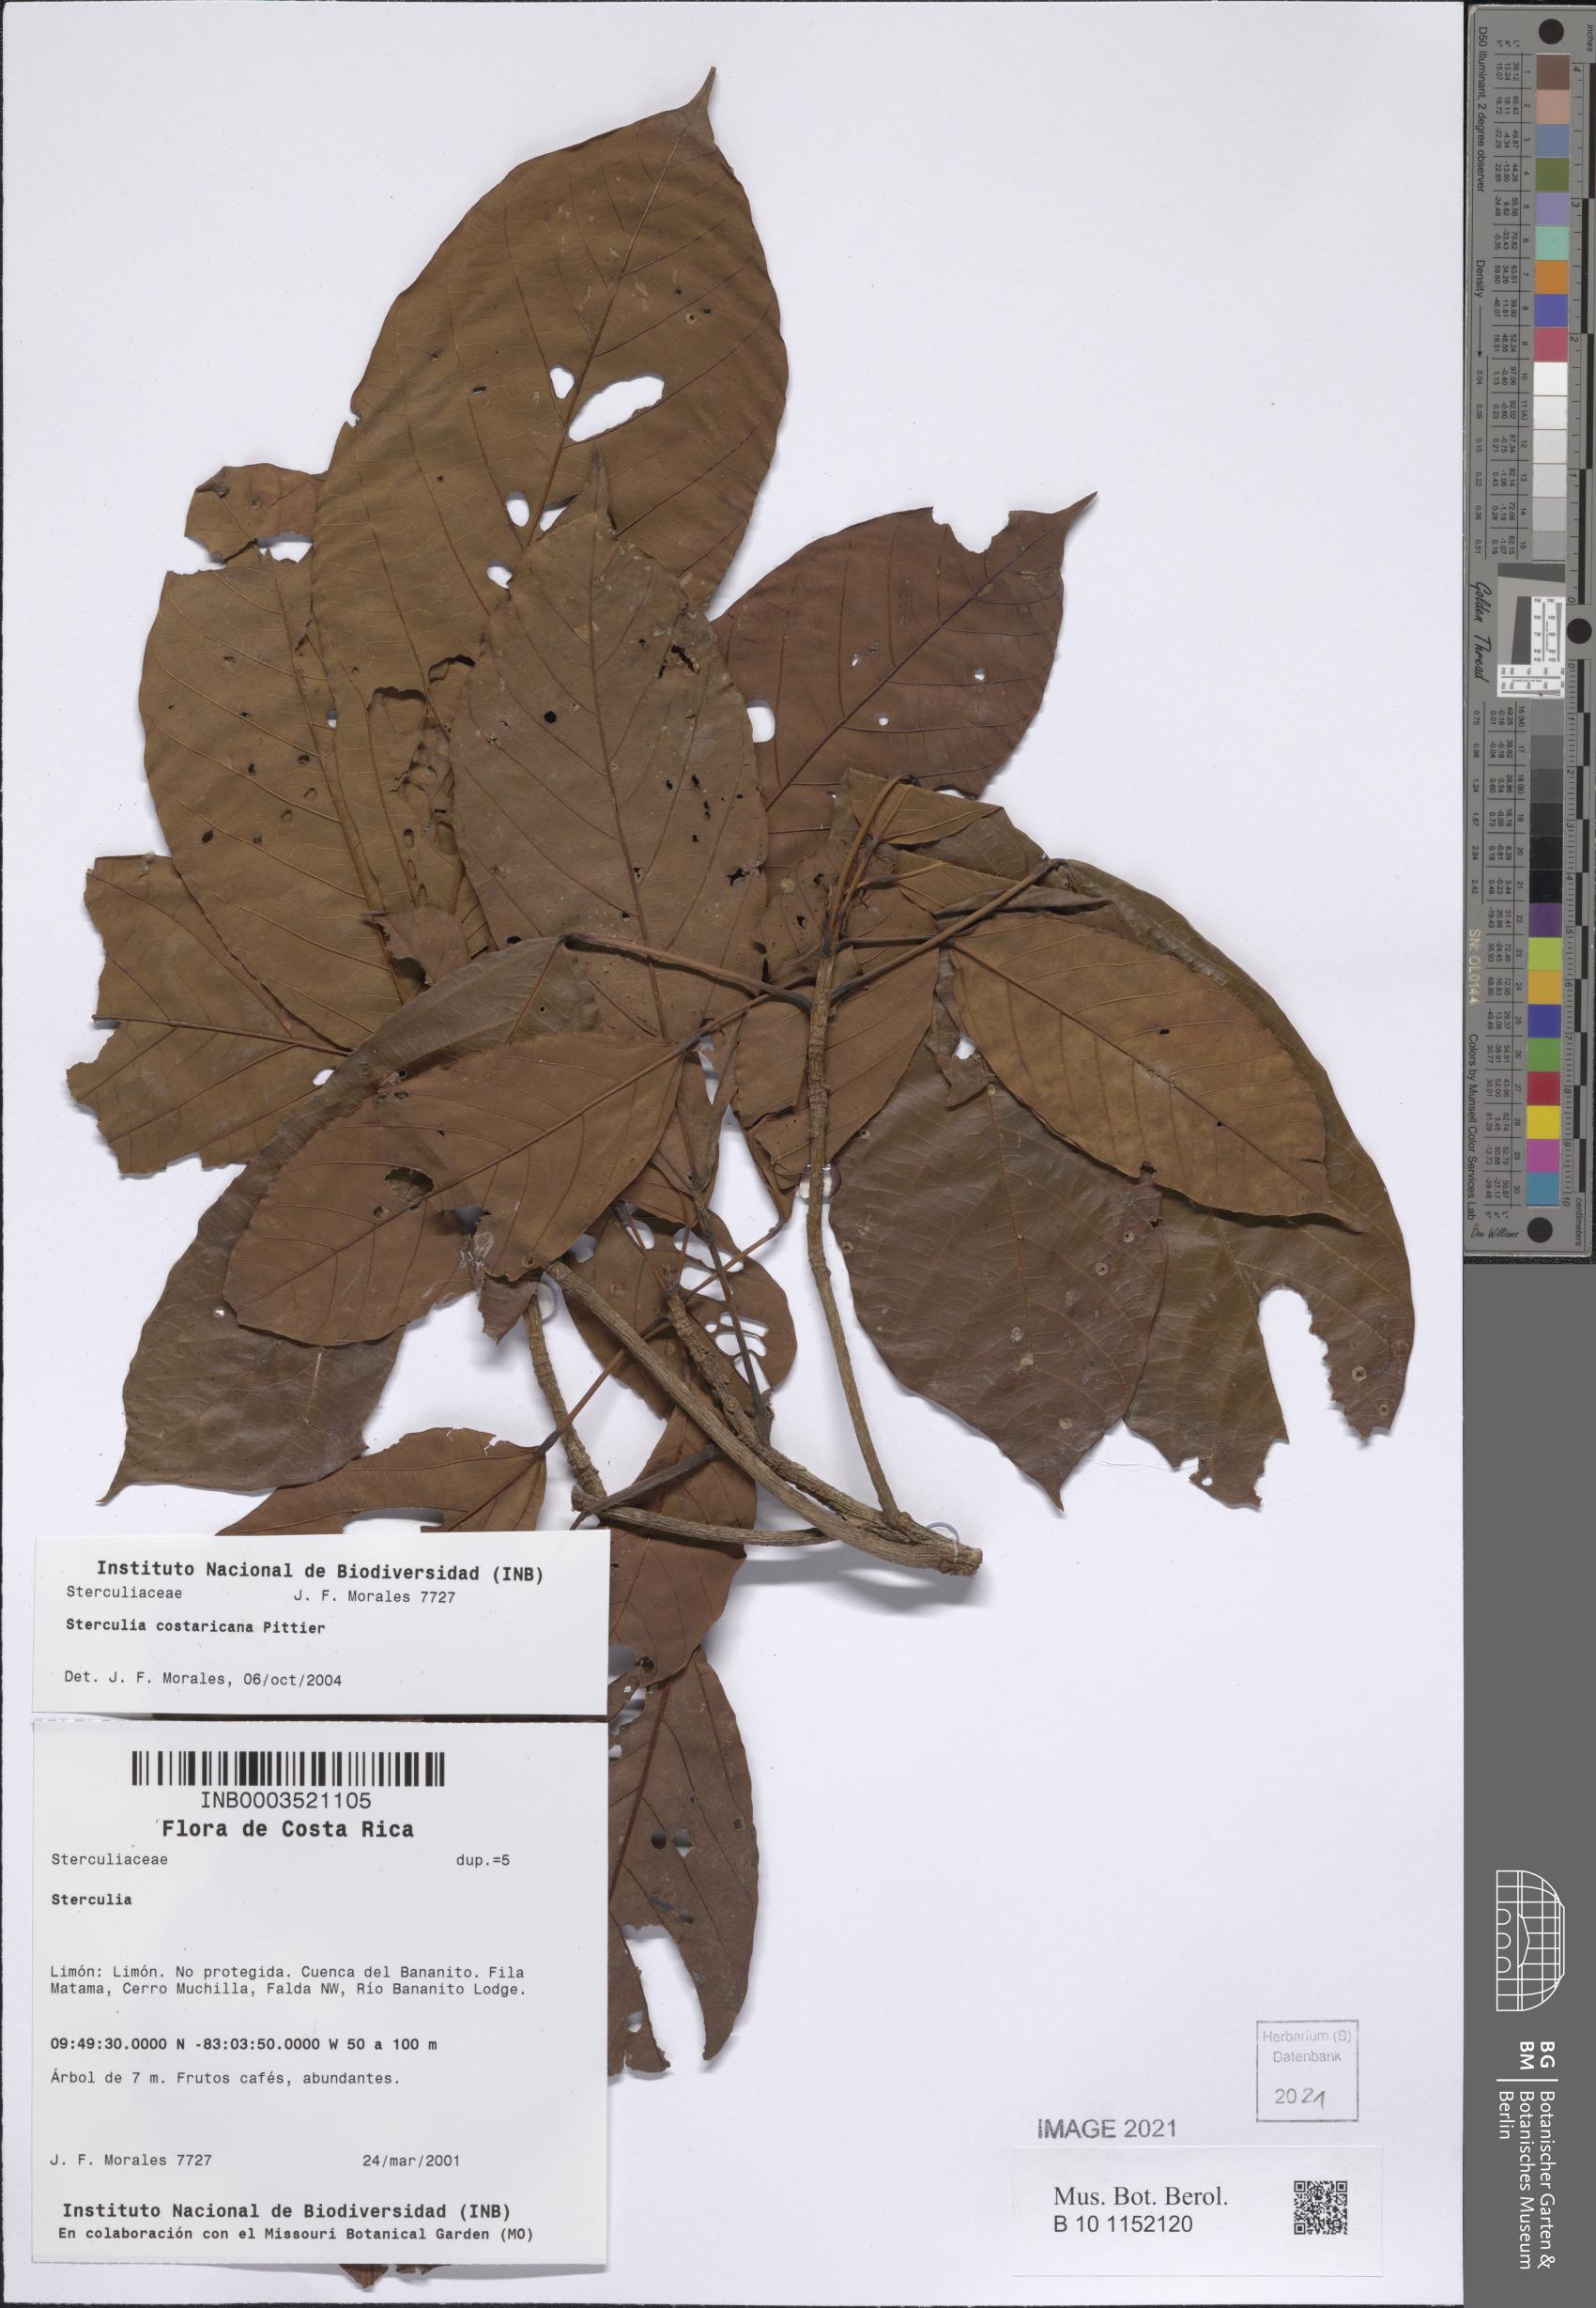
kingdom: Plantae
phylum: Tracheophyta
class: Magnoliopsida
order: Malvales
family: Malvaceae
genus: Sterculia
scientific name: Sterculia costaricana
